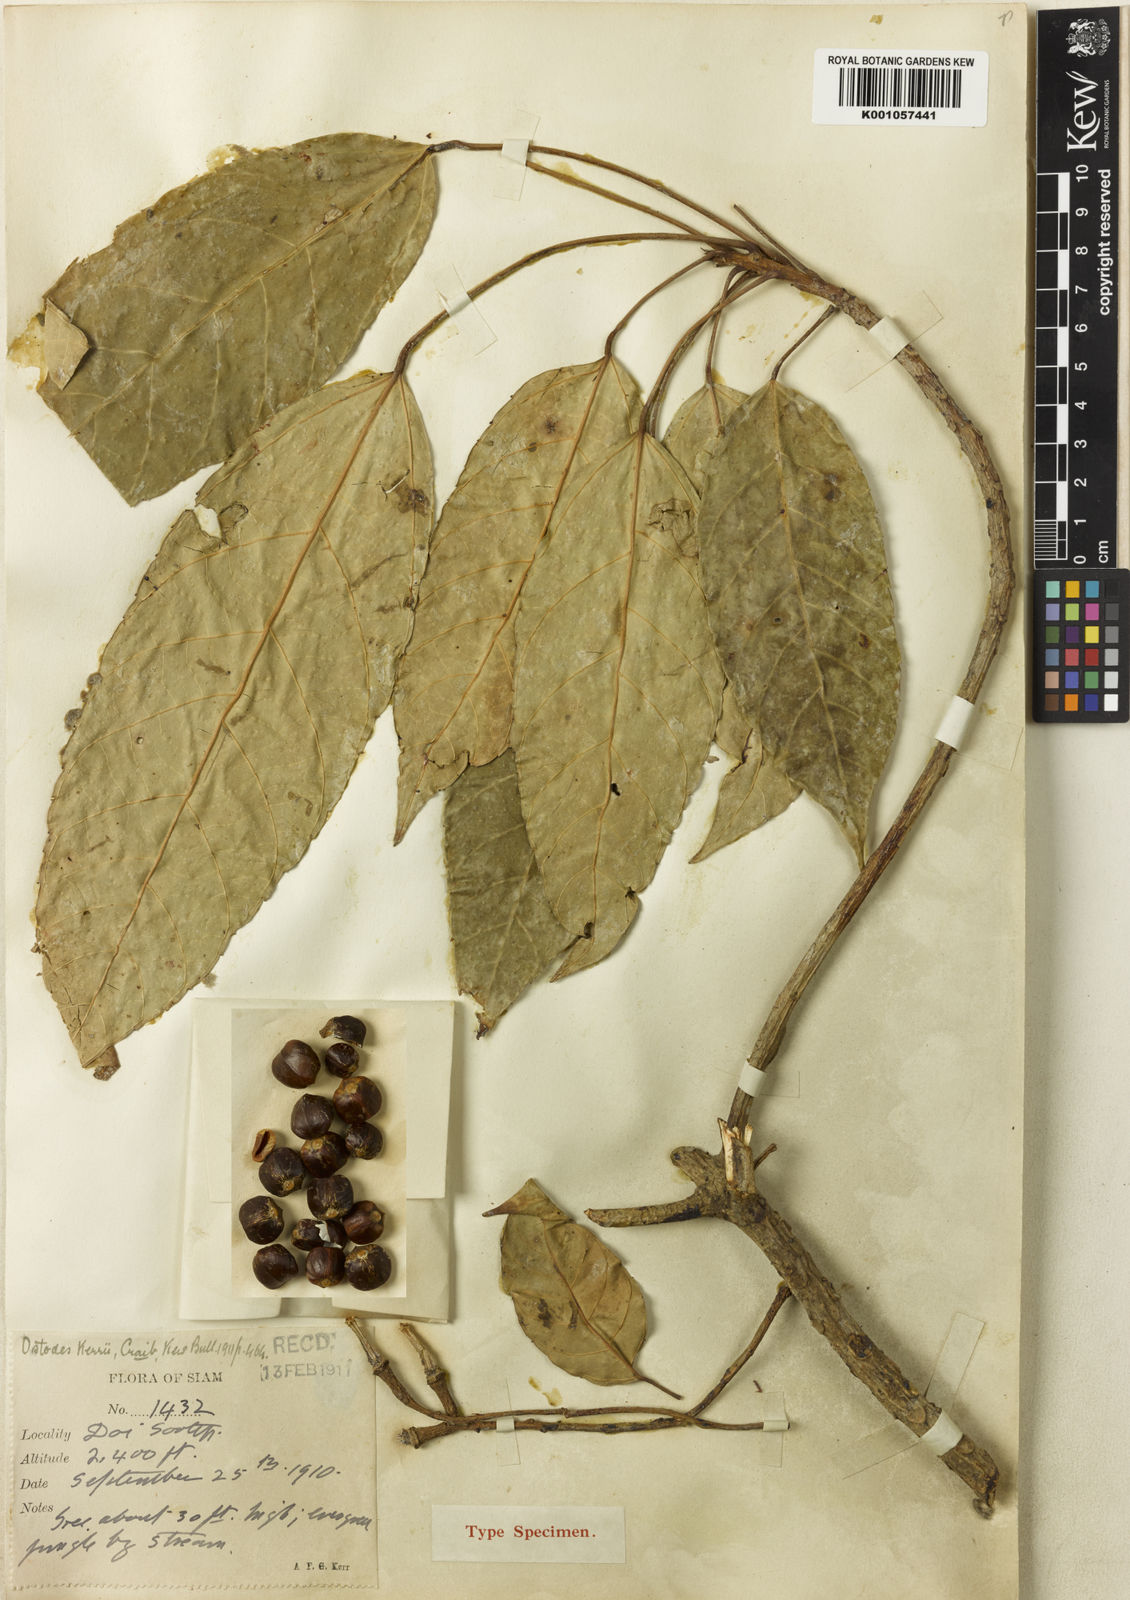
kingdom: Plantae
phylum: Tracheophyta
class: Magnoliopsida
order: Malpighiales
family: Euphorbiaceae
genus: Ostodes
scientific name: Ostodes paniculata
